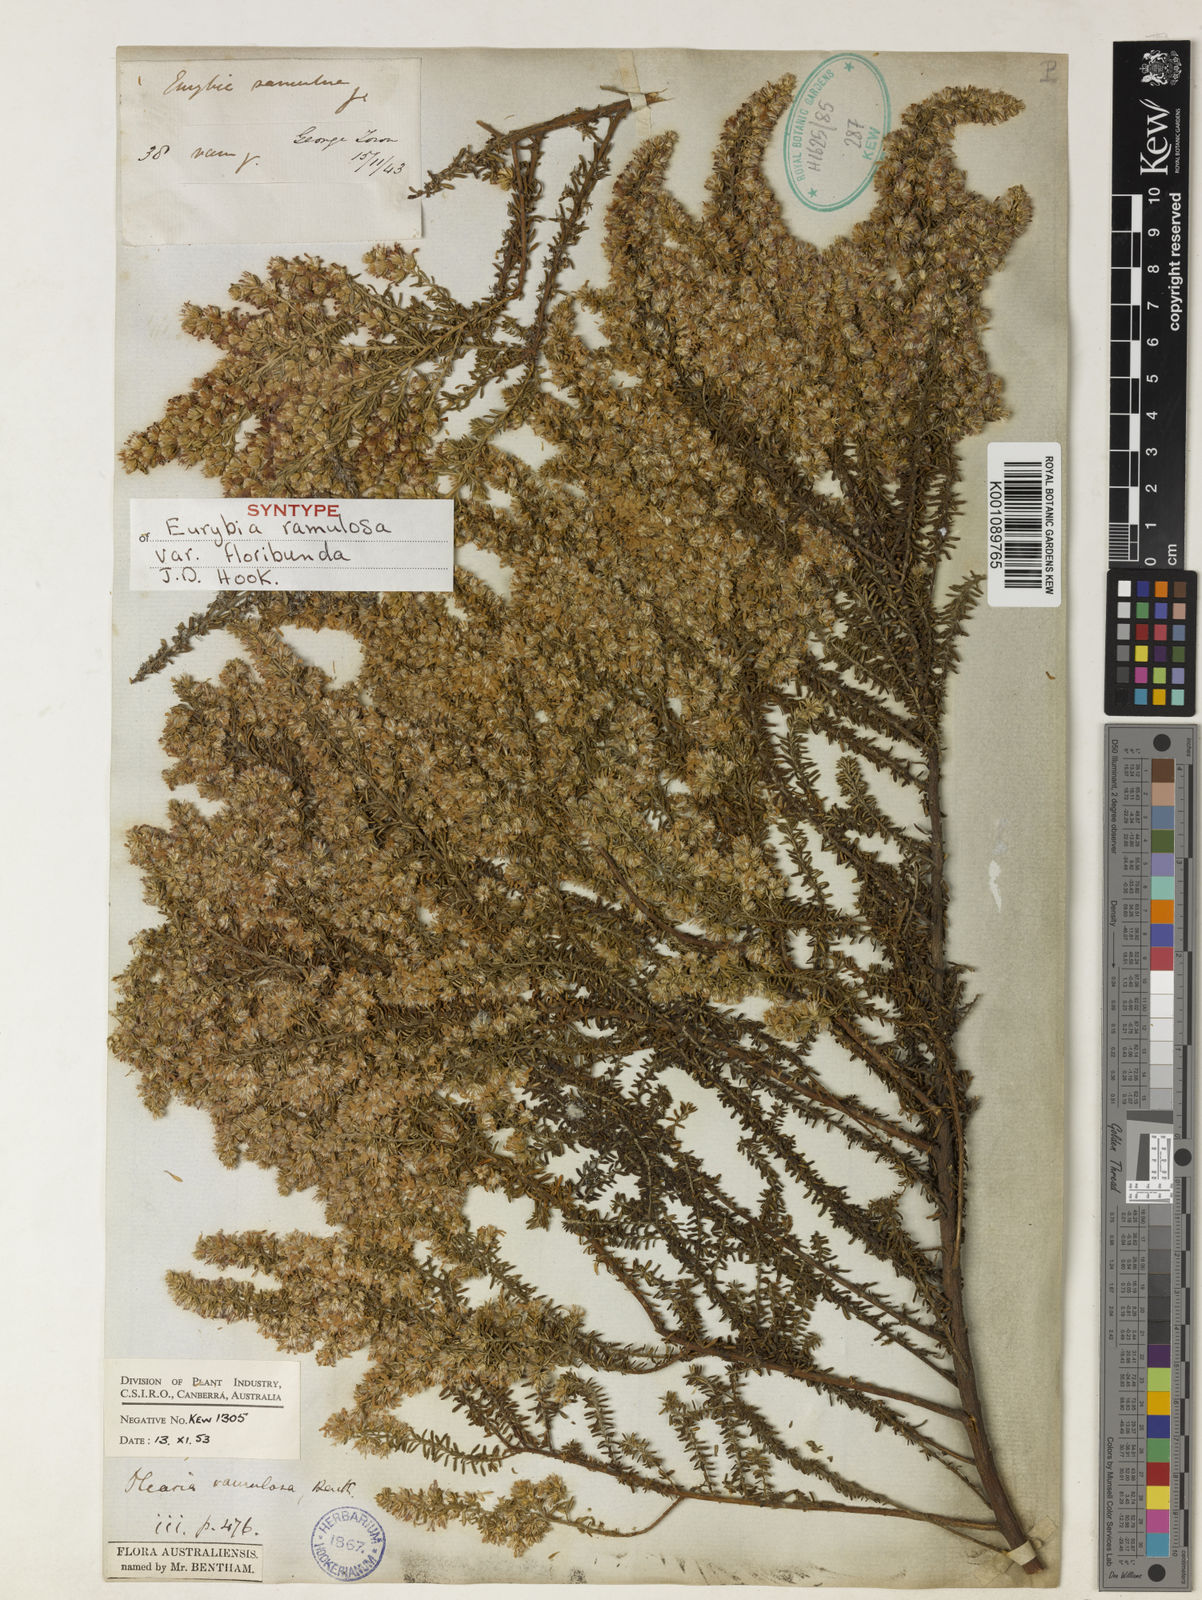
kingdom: Plantae
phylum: Tracheophyta
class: Magnoliopsida
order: Asterales
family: Asteraceae
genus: Olearia
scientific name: Olearia ramulosa
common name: Twiggy daisybush
